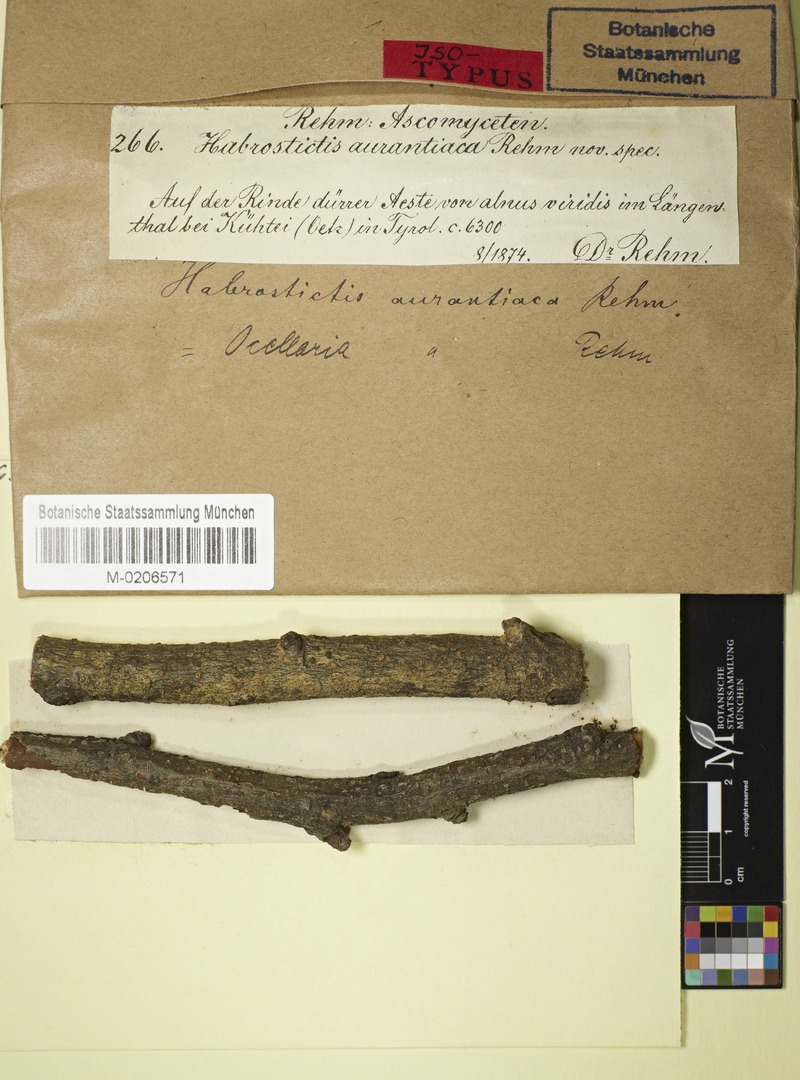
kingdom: Fungi
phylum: Ascomycota
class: Leotiomycetes
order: Helotiales
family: Dermateaceae
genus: Ocellaria
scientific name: Ocellaria aurantiaca
